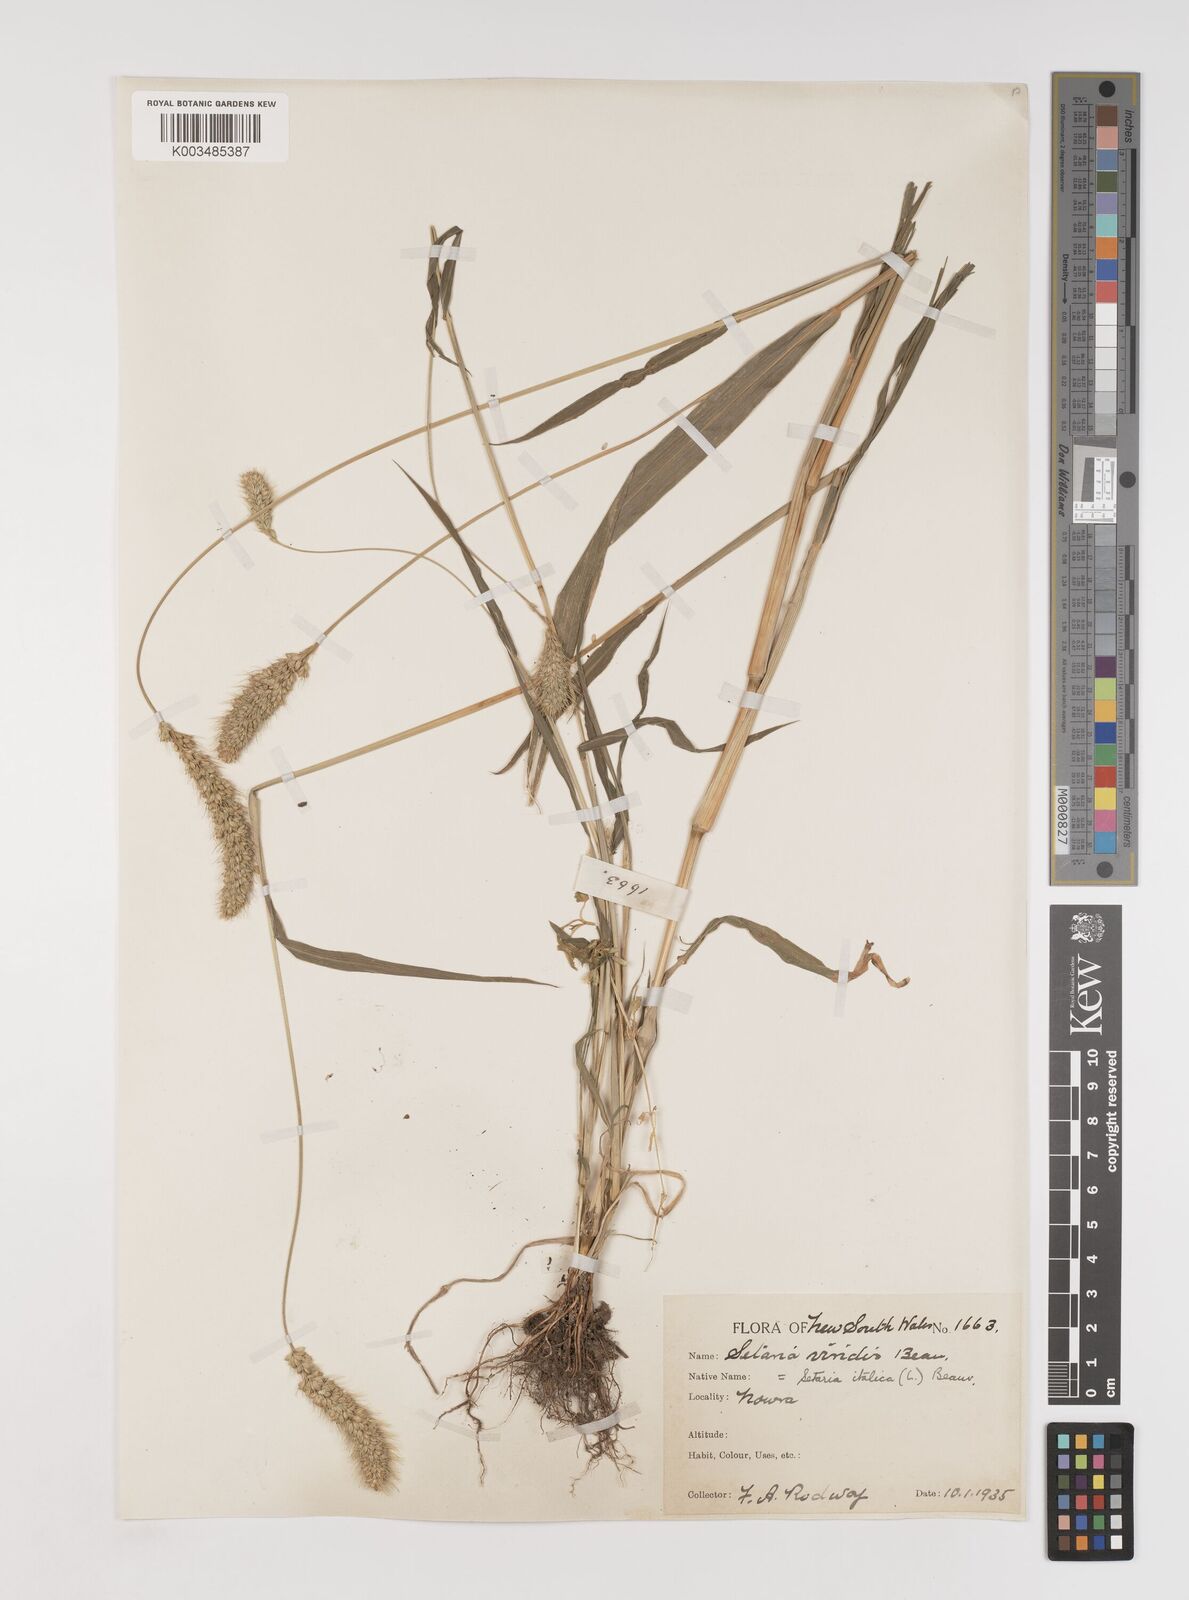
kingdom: Plantae
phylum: Tracheophyta
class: Liliopsida
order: Poales
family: Poaceae
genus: Setaria
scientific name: Setaria italica
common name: Foxtail bristle-grass
